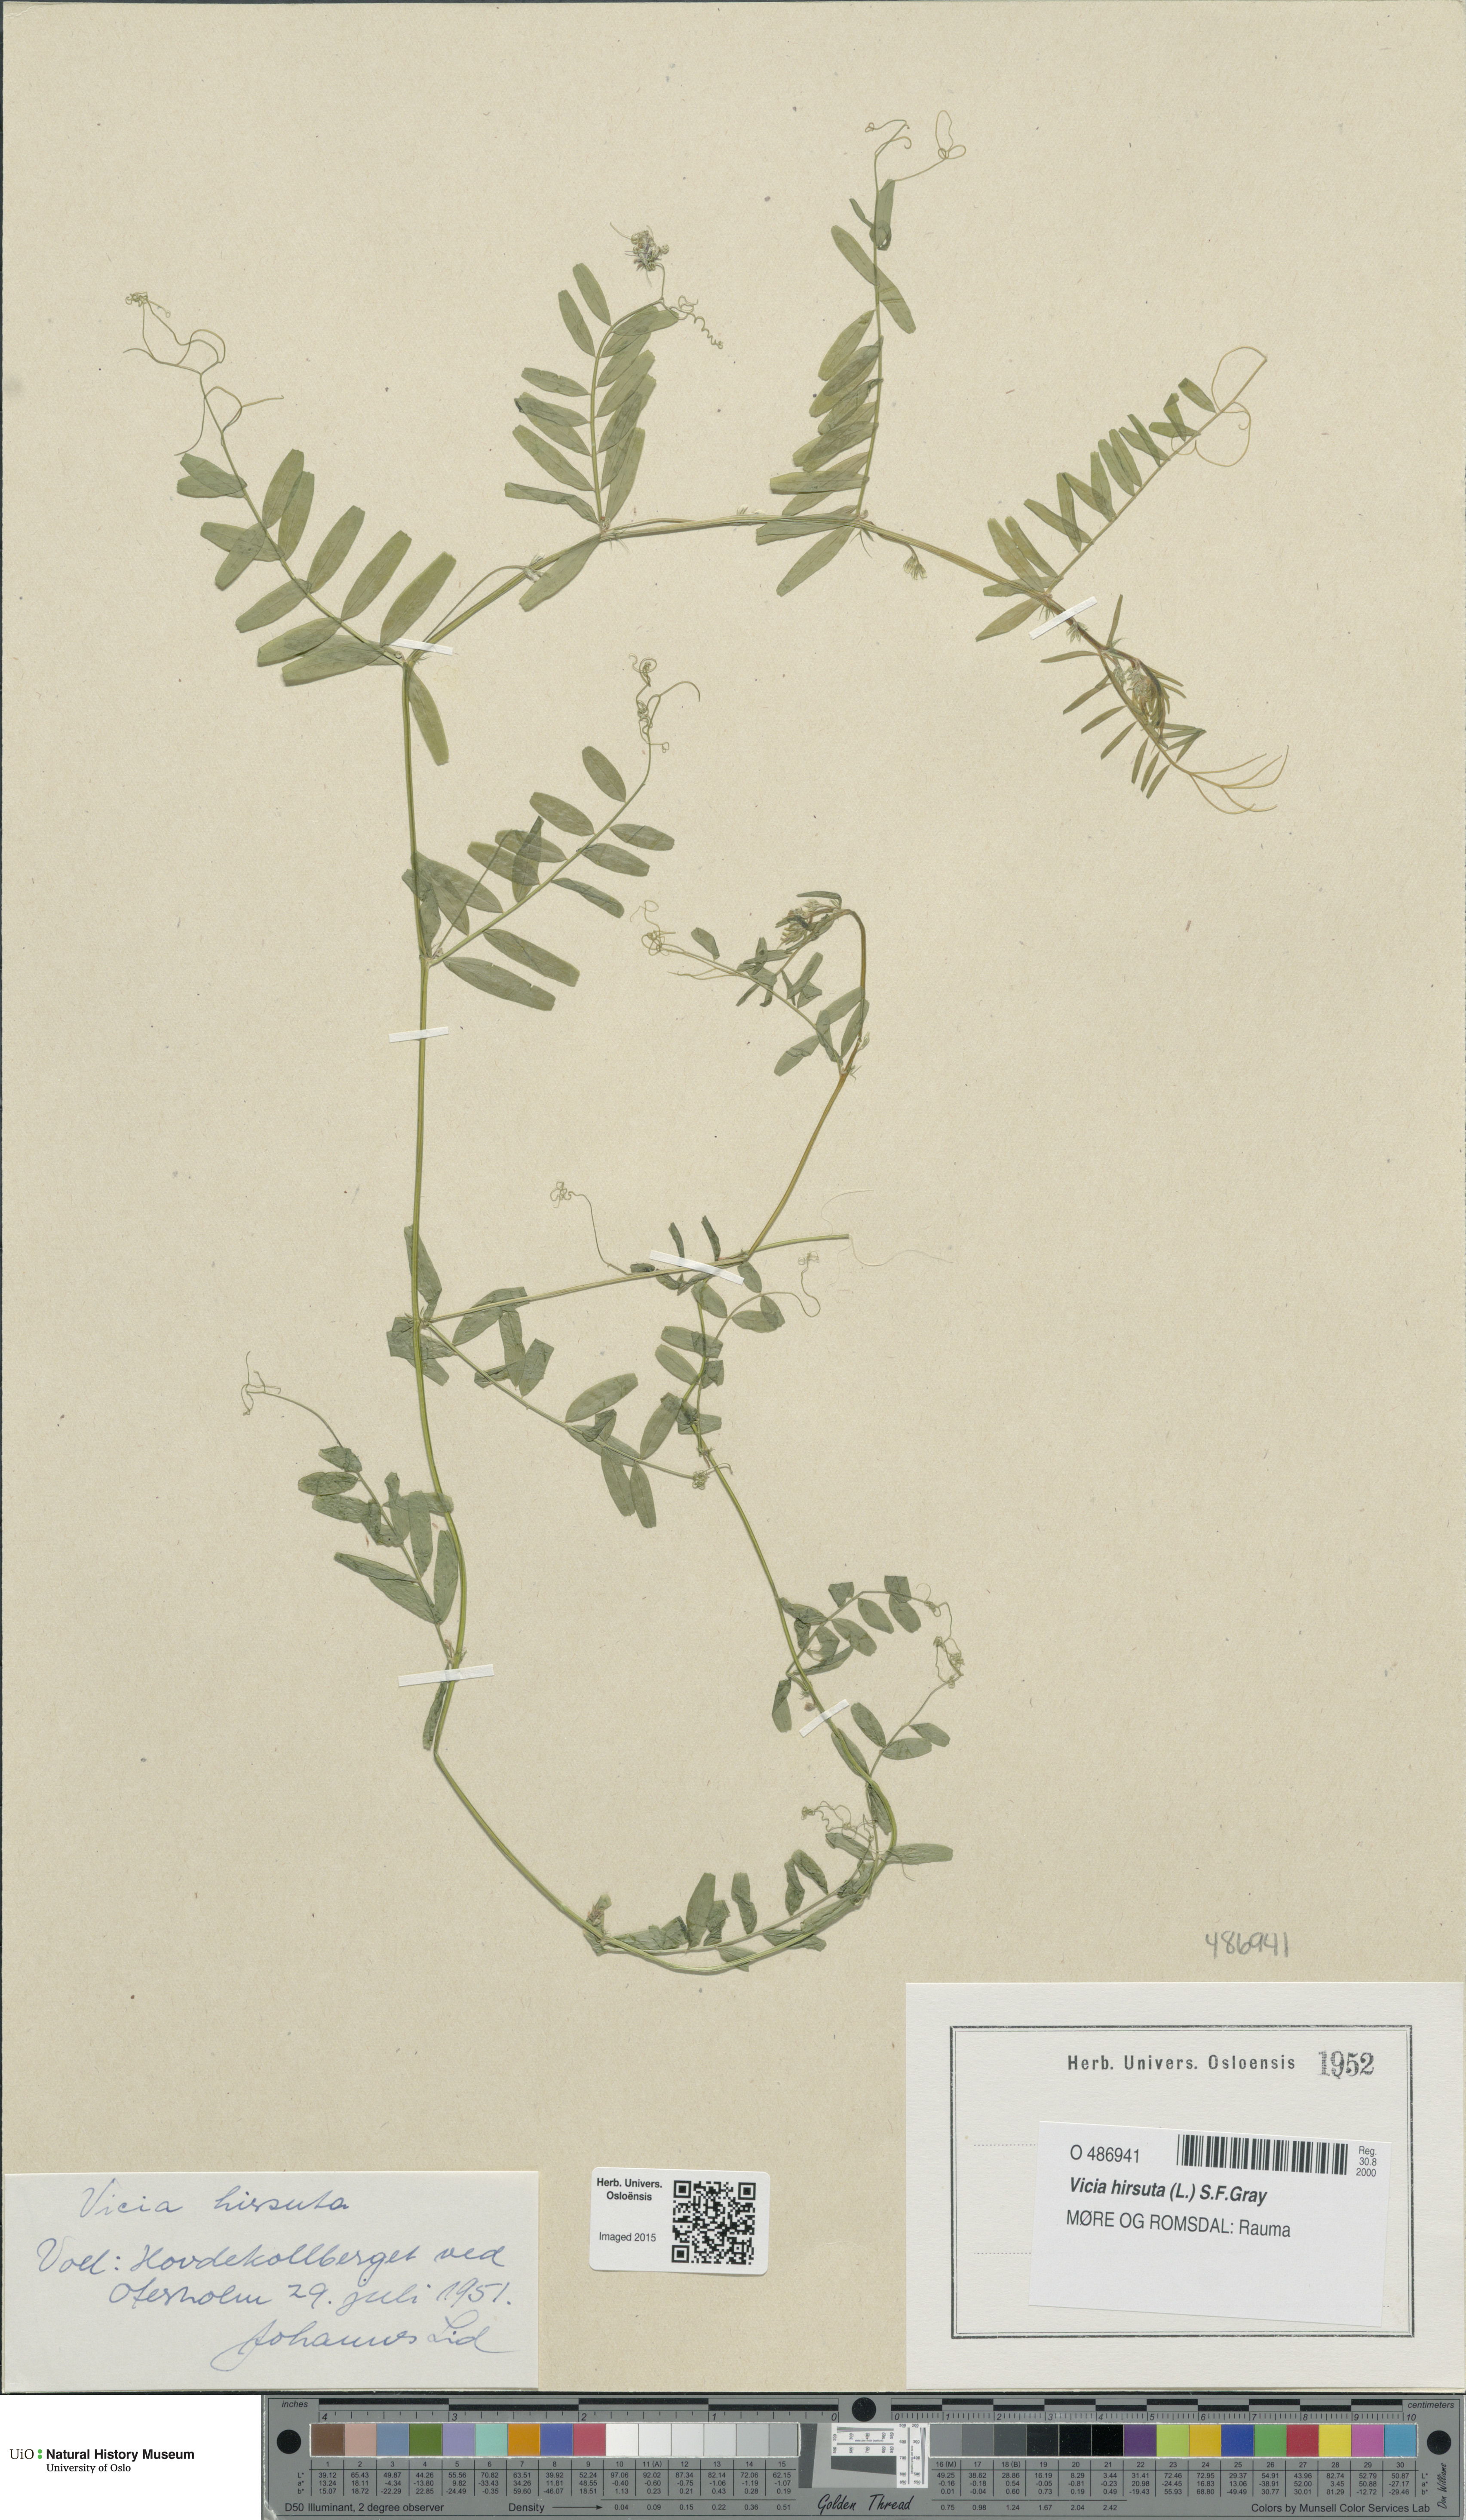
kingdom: Plantae
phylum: Tracheophyta
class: Magnoliopsida
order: Fabales
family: Fabaceae
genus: Vicia
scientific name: Vicia hirsuta
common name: Tiny vetch
